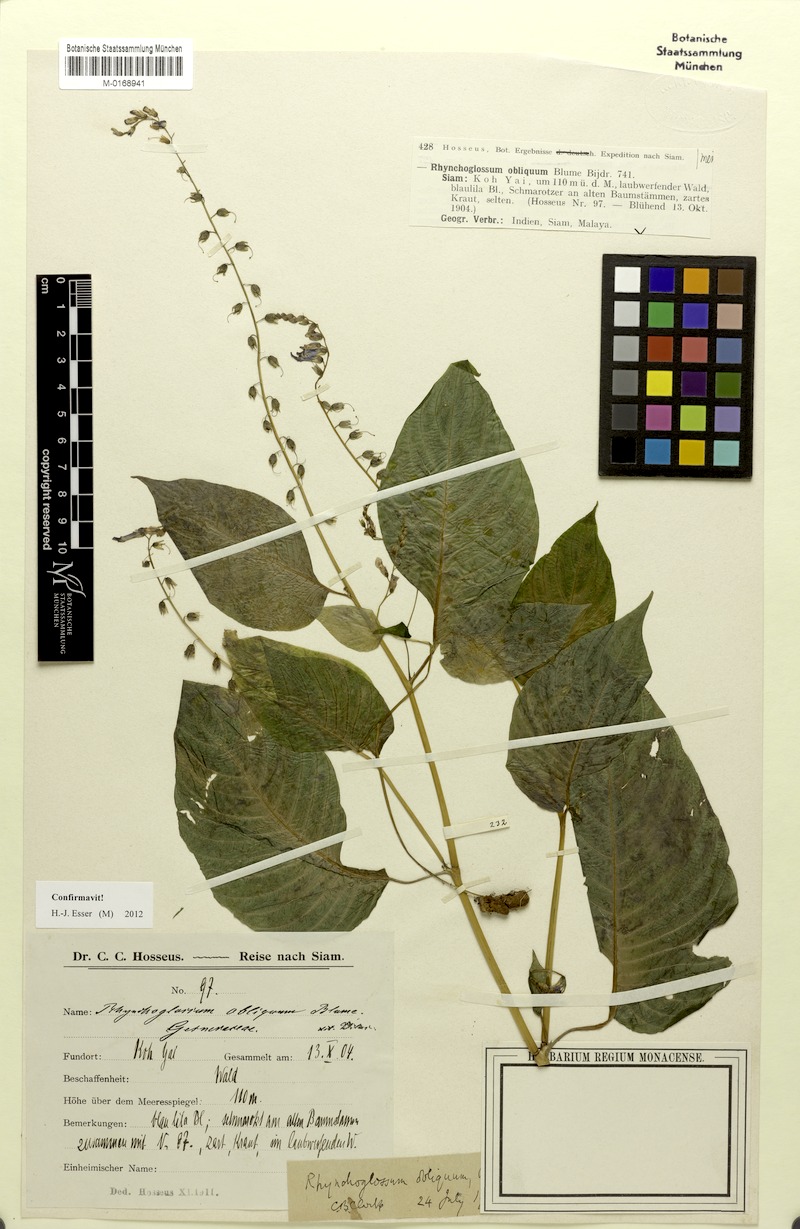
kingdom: Plantae
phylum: Tracheophyta
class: Magnoliopsida
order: Lamiales
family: Gesneriaceae
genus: Rhynchoglossum
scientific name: Rhynchoglossum obliquum
